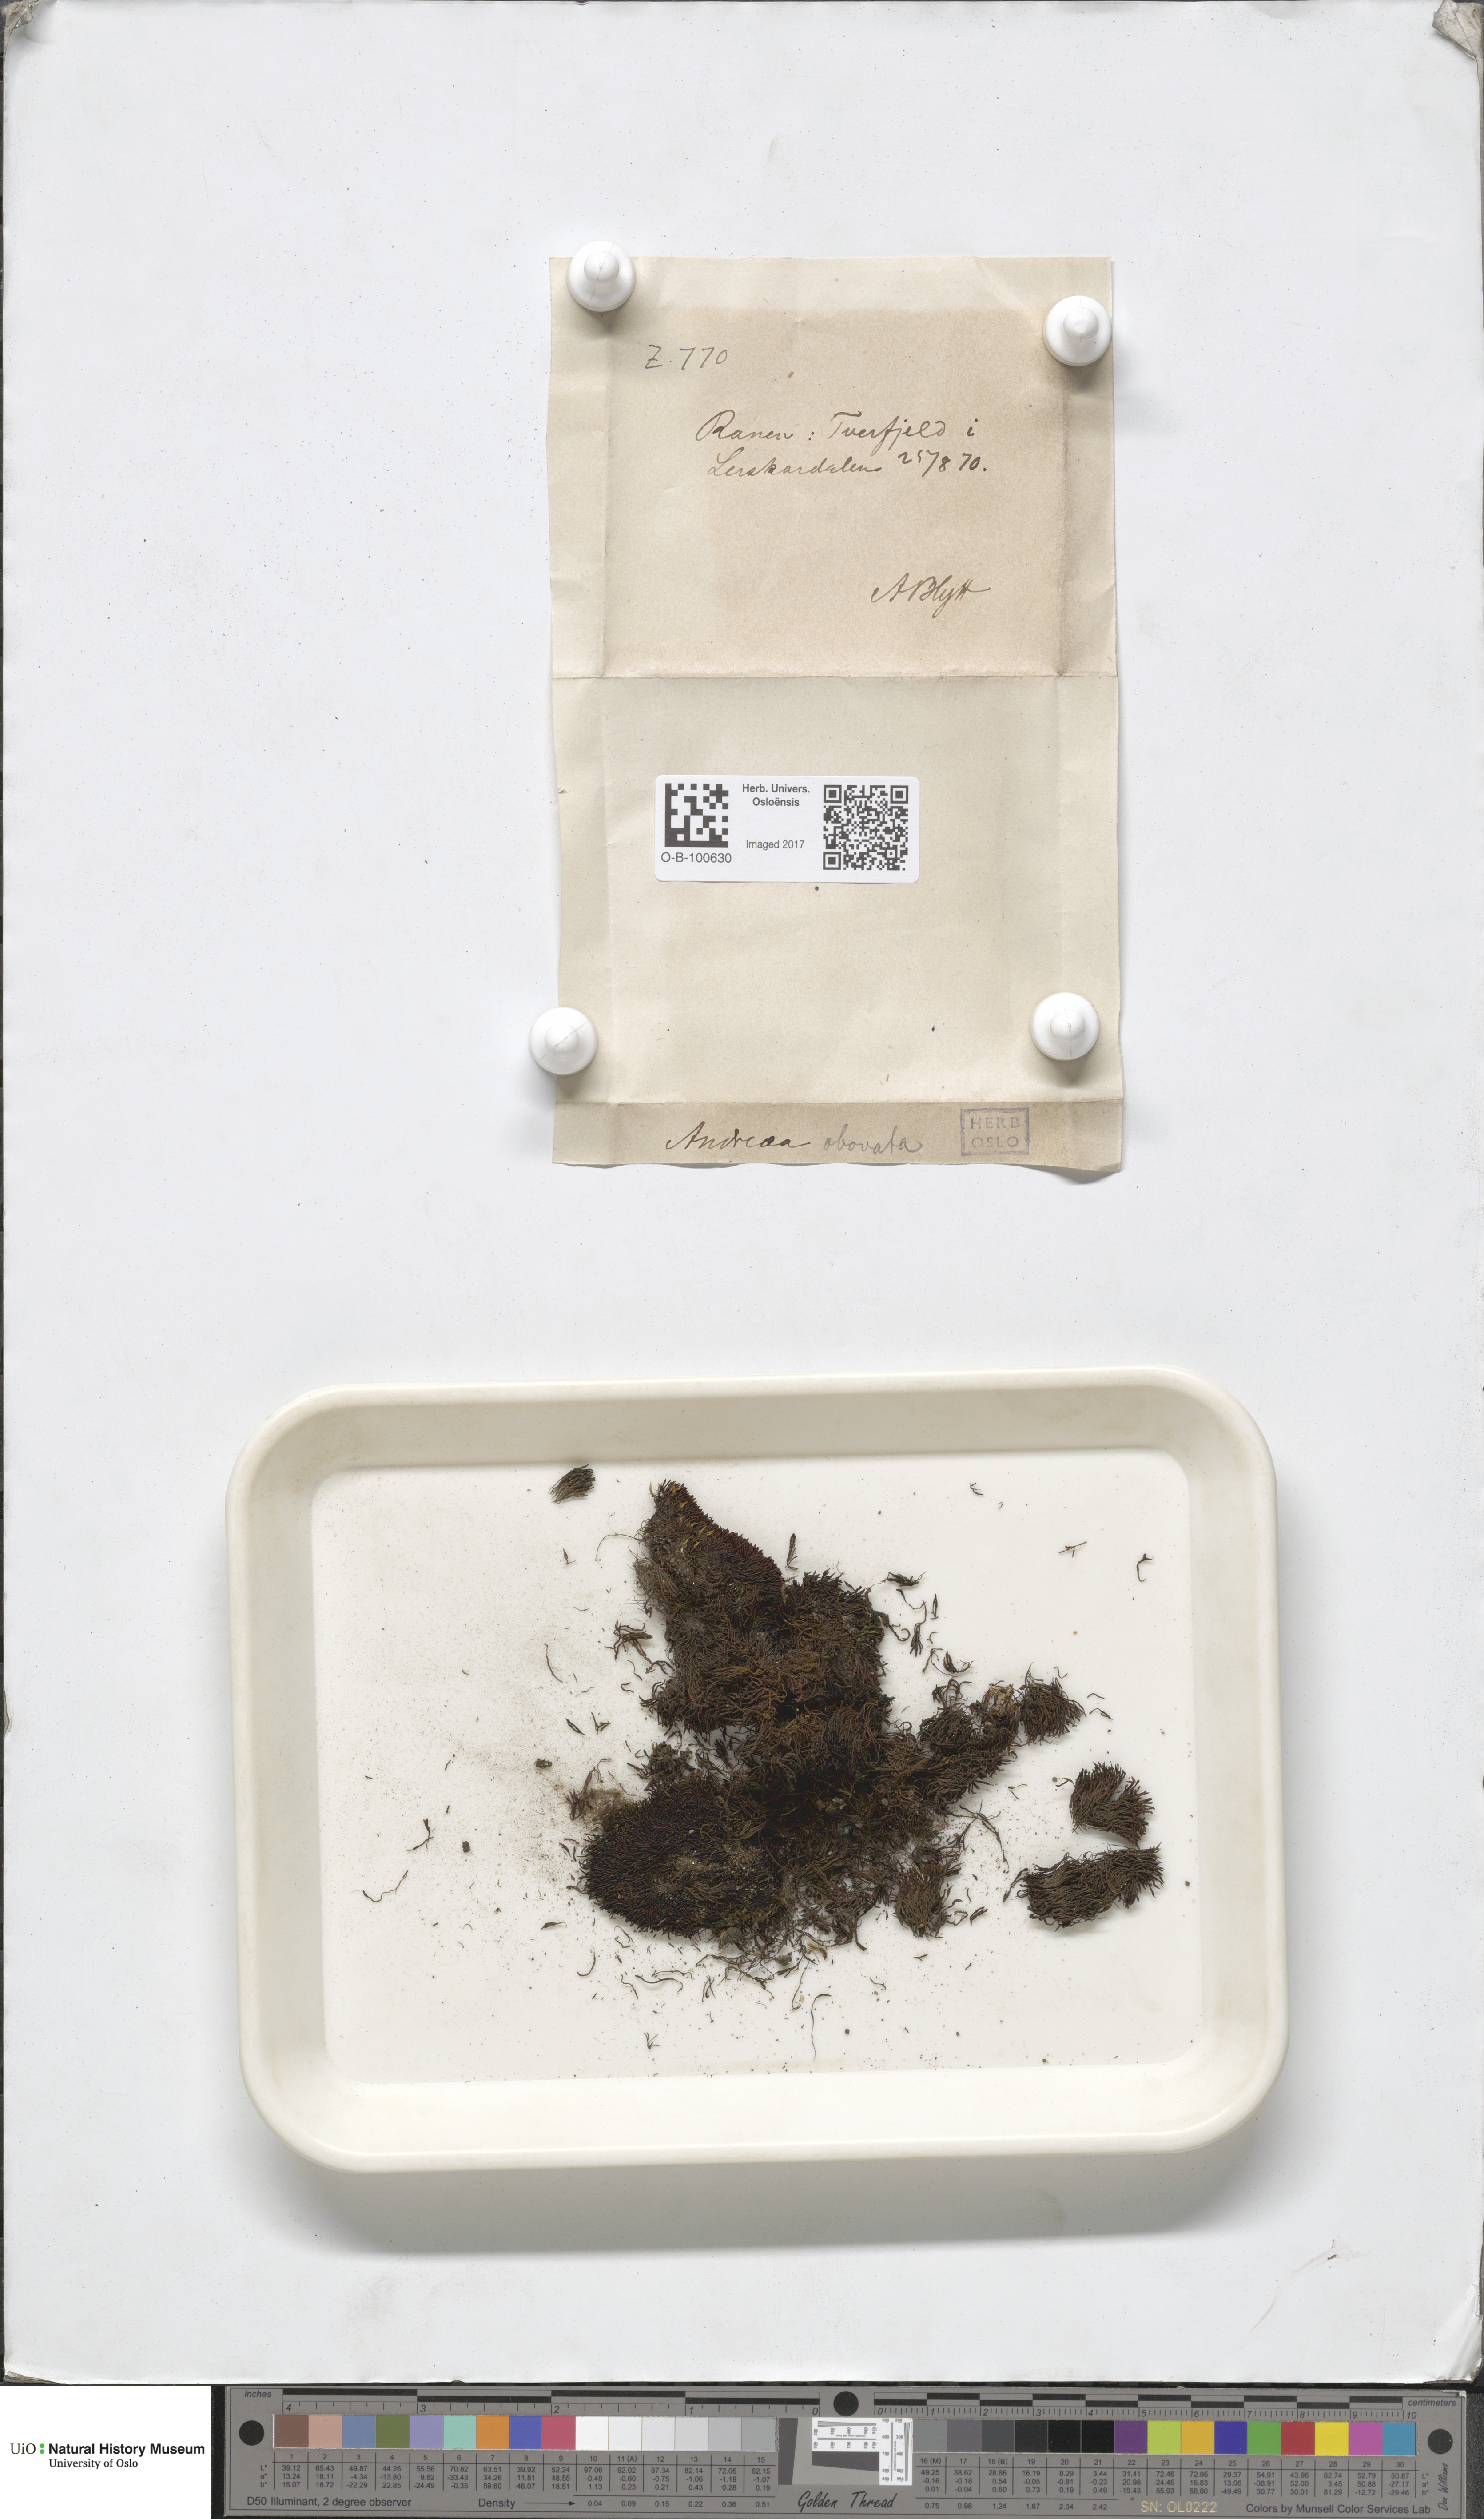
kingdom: Plantae
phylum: Bryophyta
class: Andreaeopsida
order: Andreaeales
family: Andreaeaceae
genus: Andreaea
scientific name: Andreaea alpina
